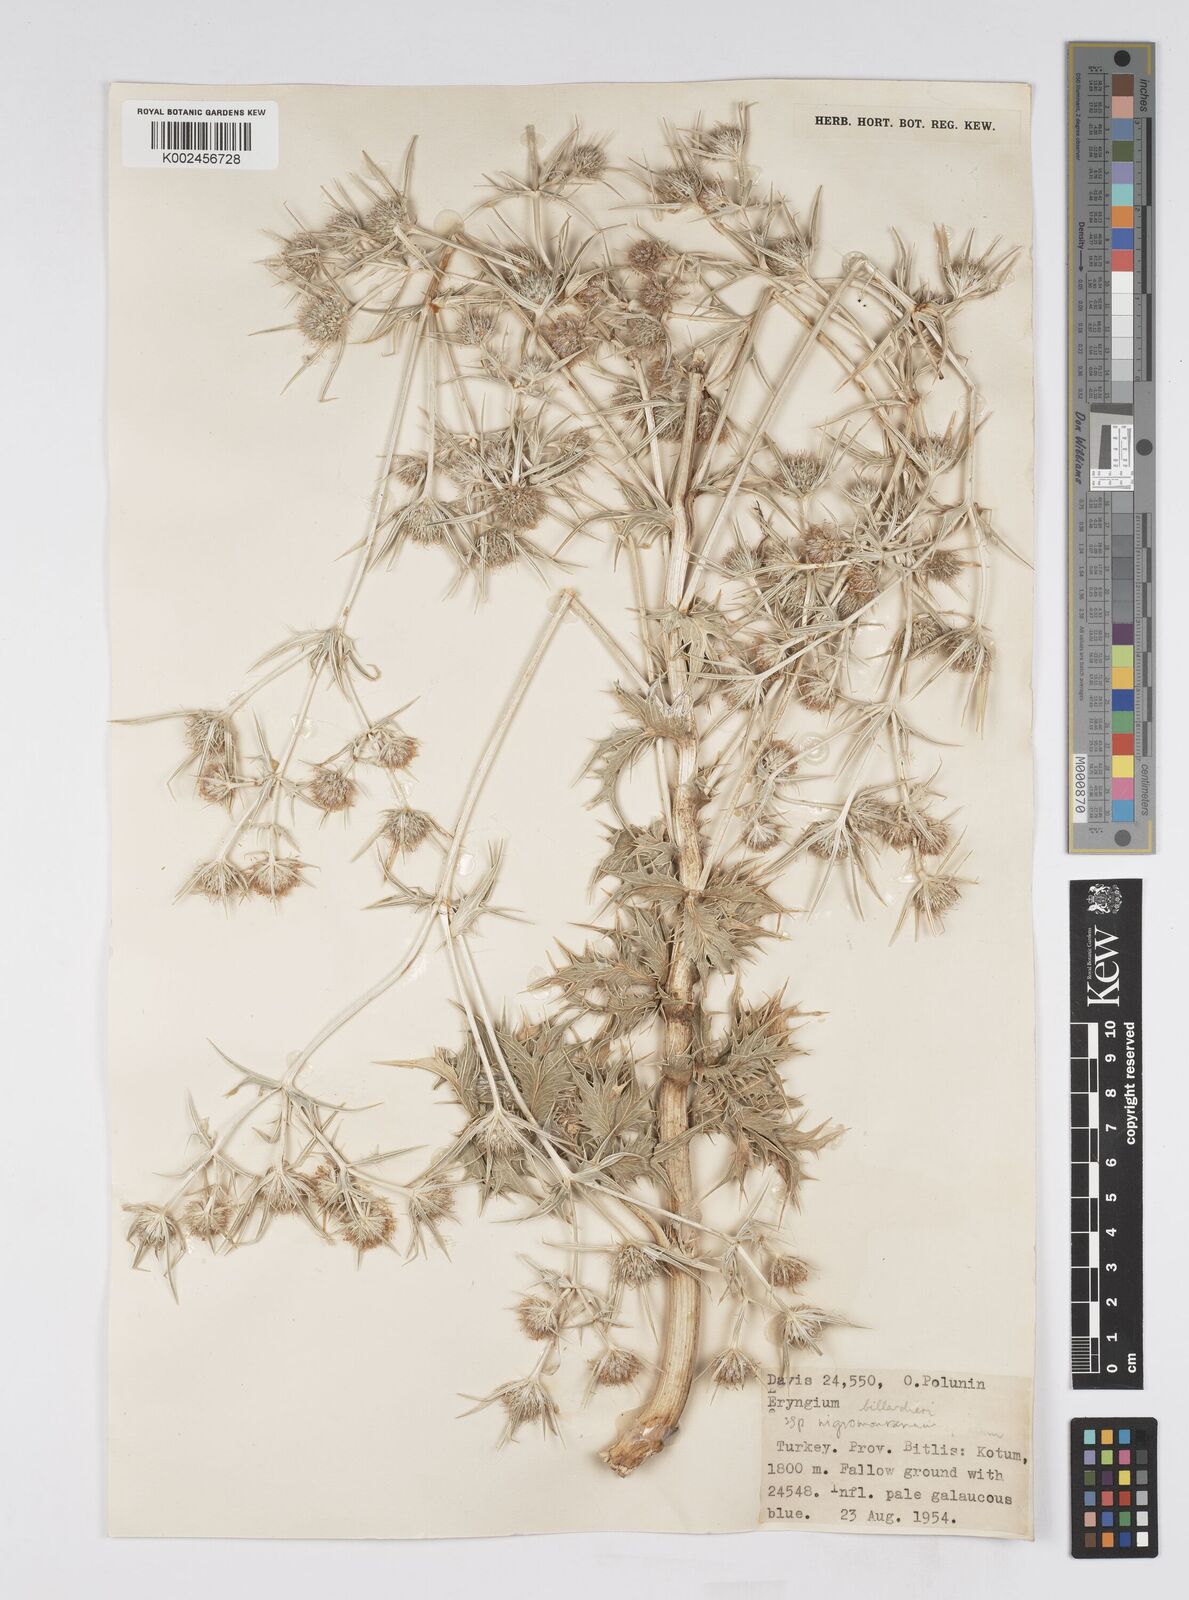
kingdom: Plantae
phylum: Tracheophyta
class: Magnoliopsida
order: Apiales
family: Apiaceae
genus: Eryngium
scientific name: Eryngium billardierei
